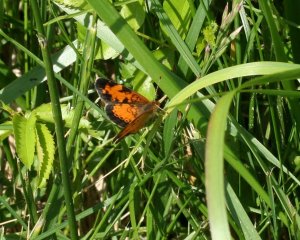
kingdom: Animalia
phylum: Arthropoda
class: Insecta
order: Lepidoptera
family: Nymphalidae
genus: Phyciodes
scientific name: Phyciodes tharos
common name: Northern Crescent
